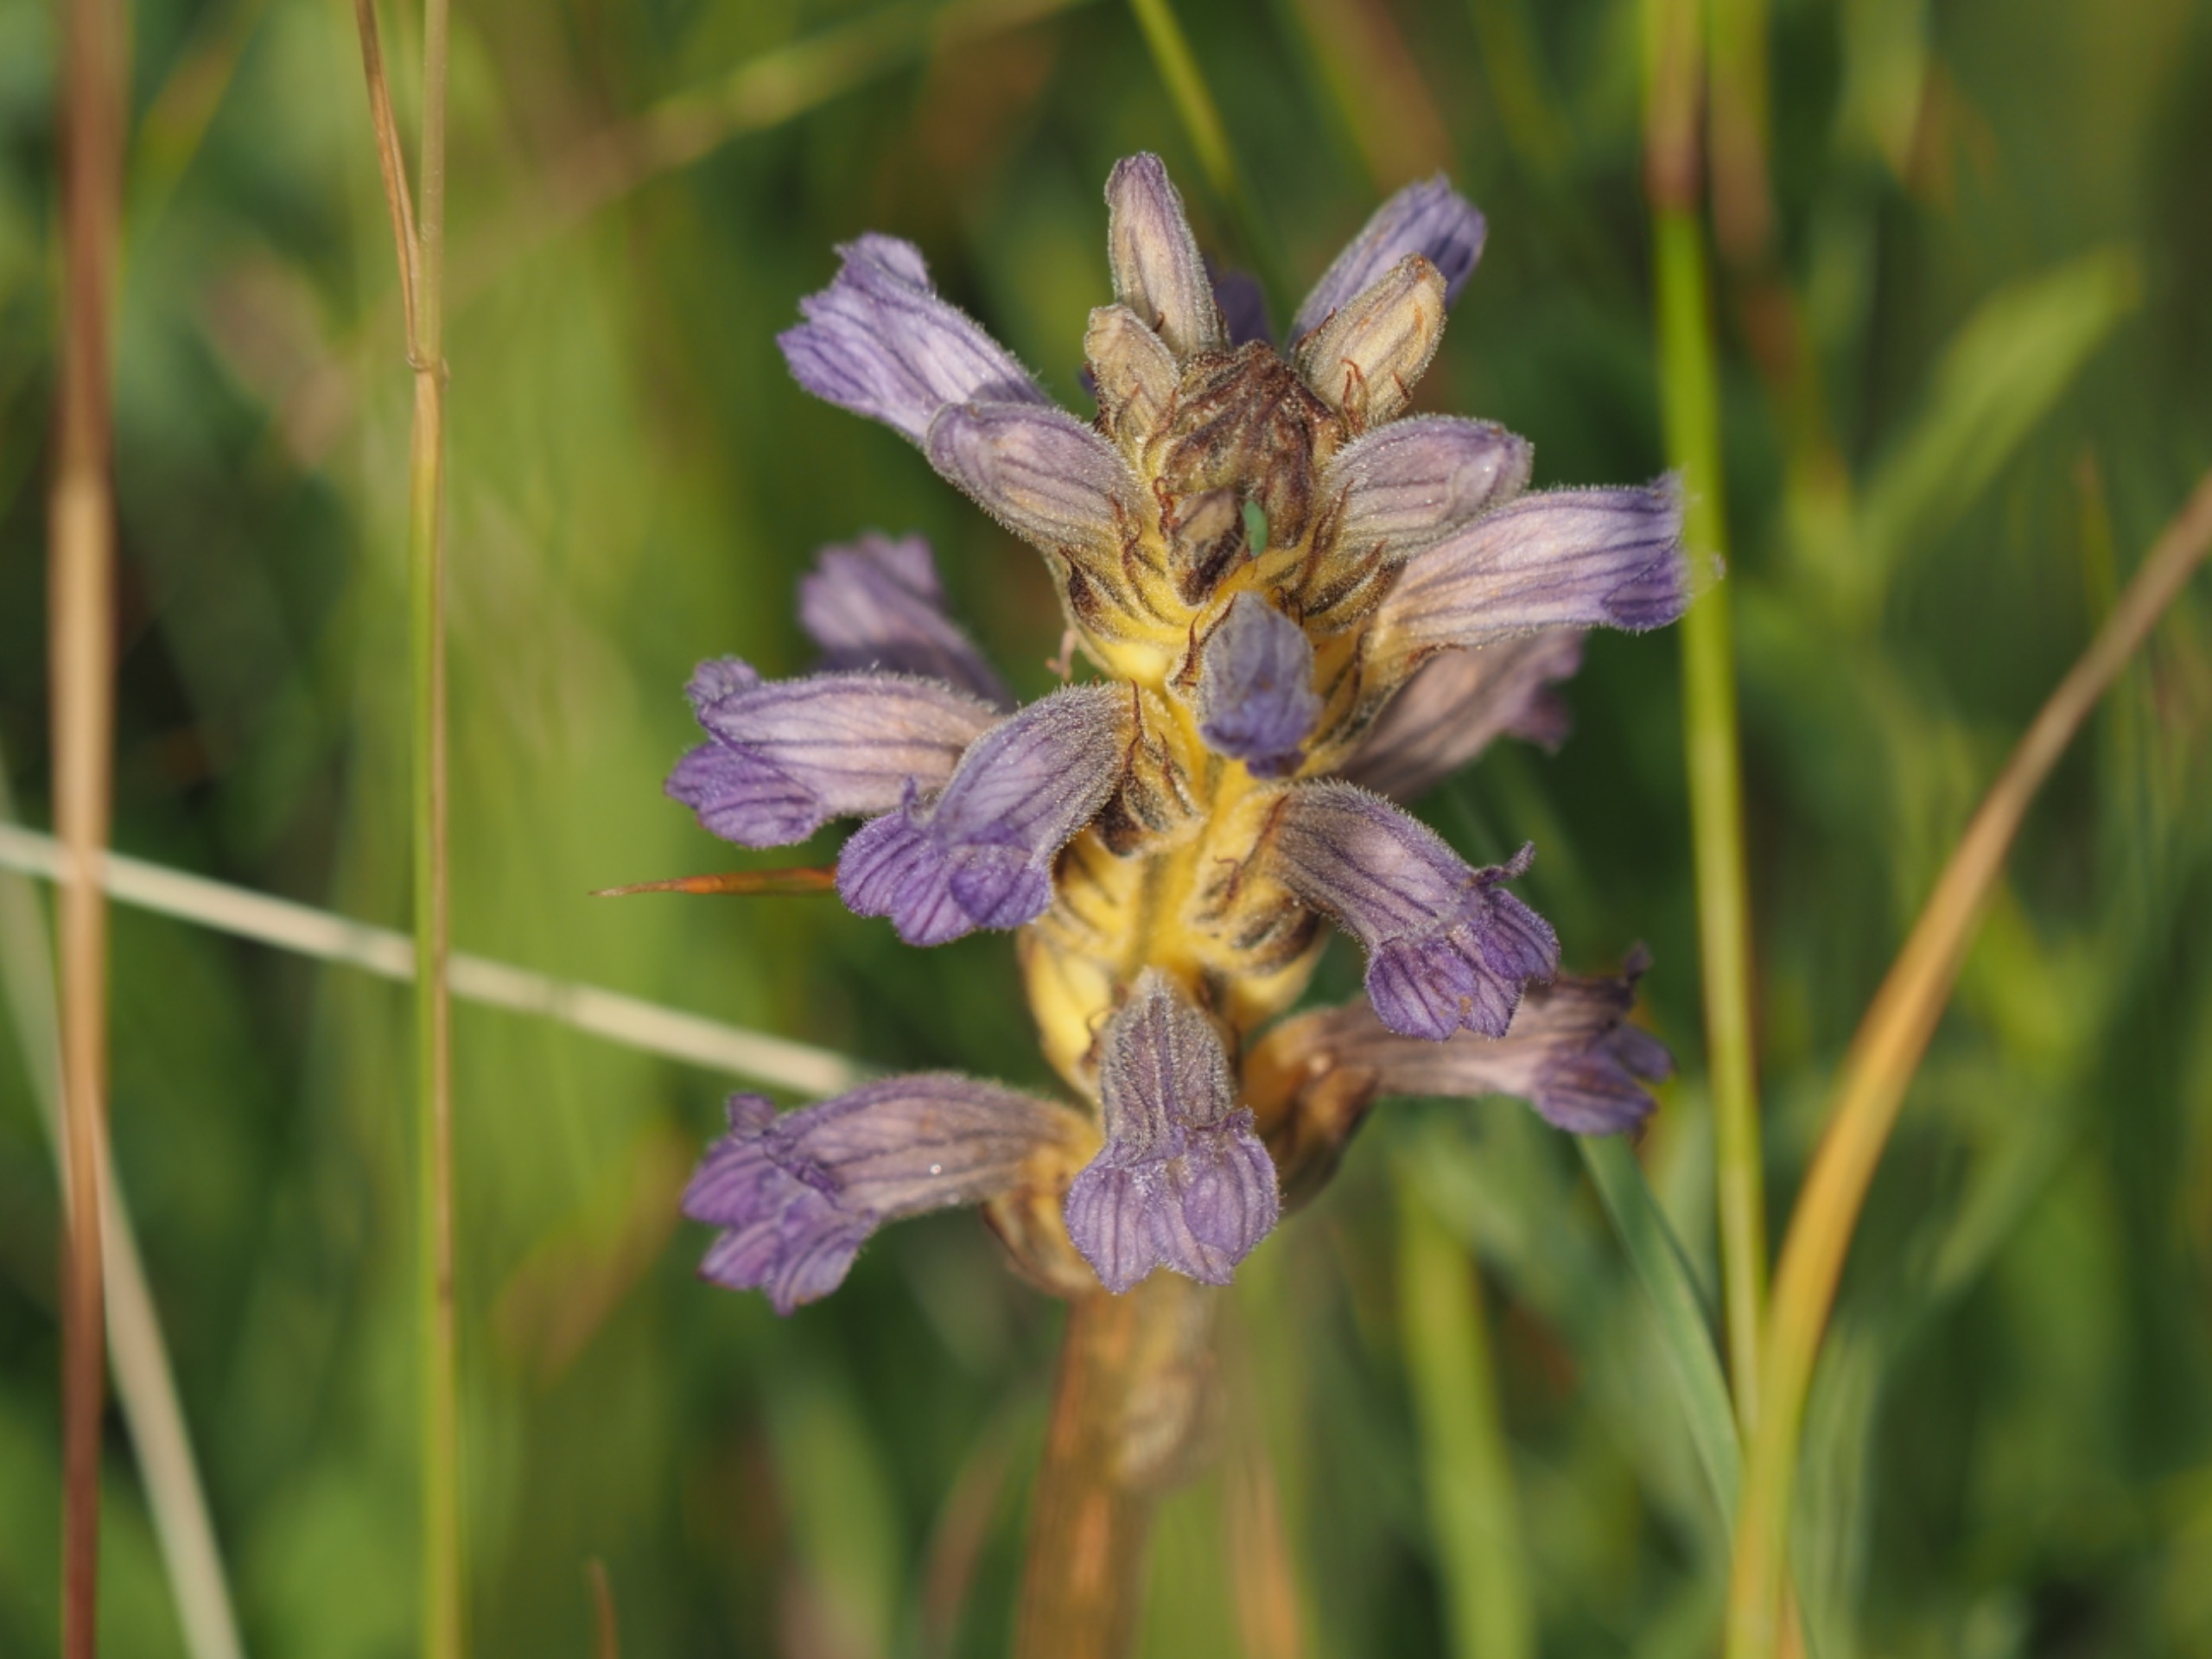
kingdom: Plantae
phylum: Tracheophyta
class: Magnoliopsida
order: Lamiales
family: Orobanchaceae
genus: Phelipanche
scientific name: Phelipanche purpurea
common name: Røllike-gyvelkvæler
